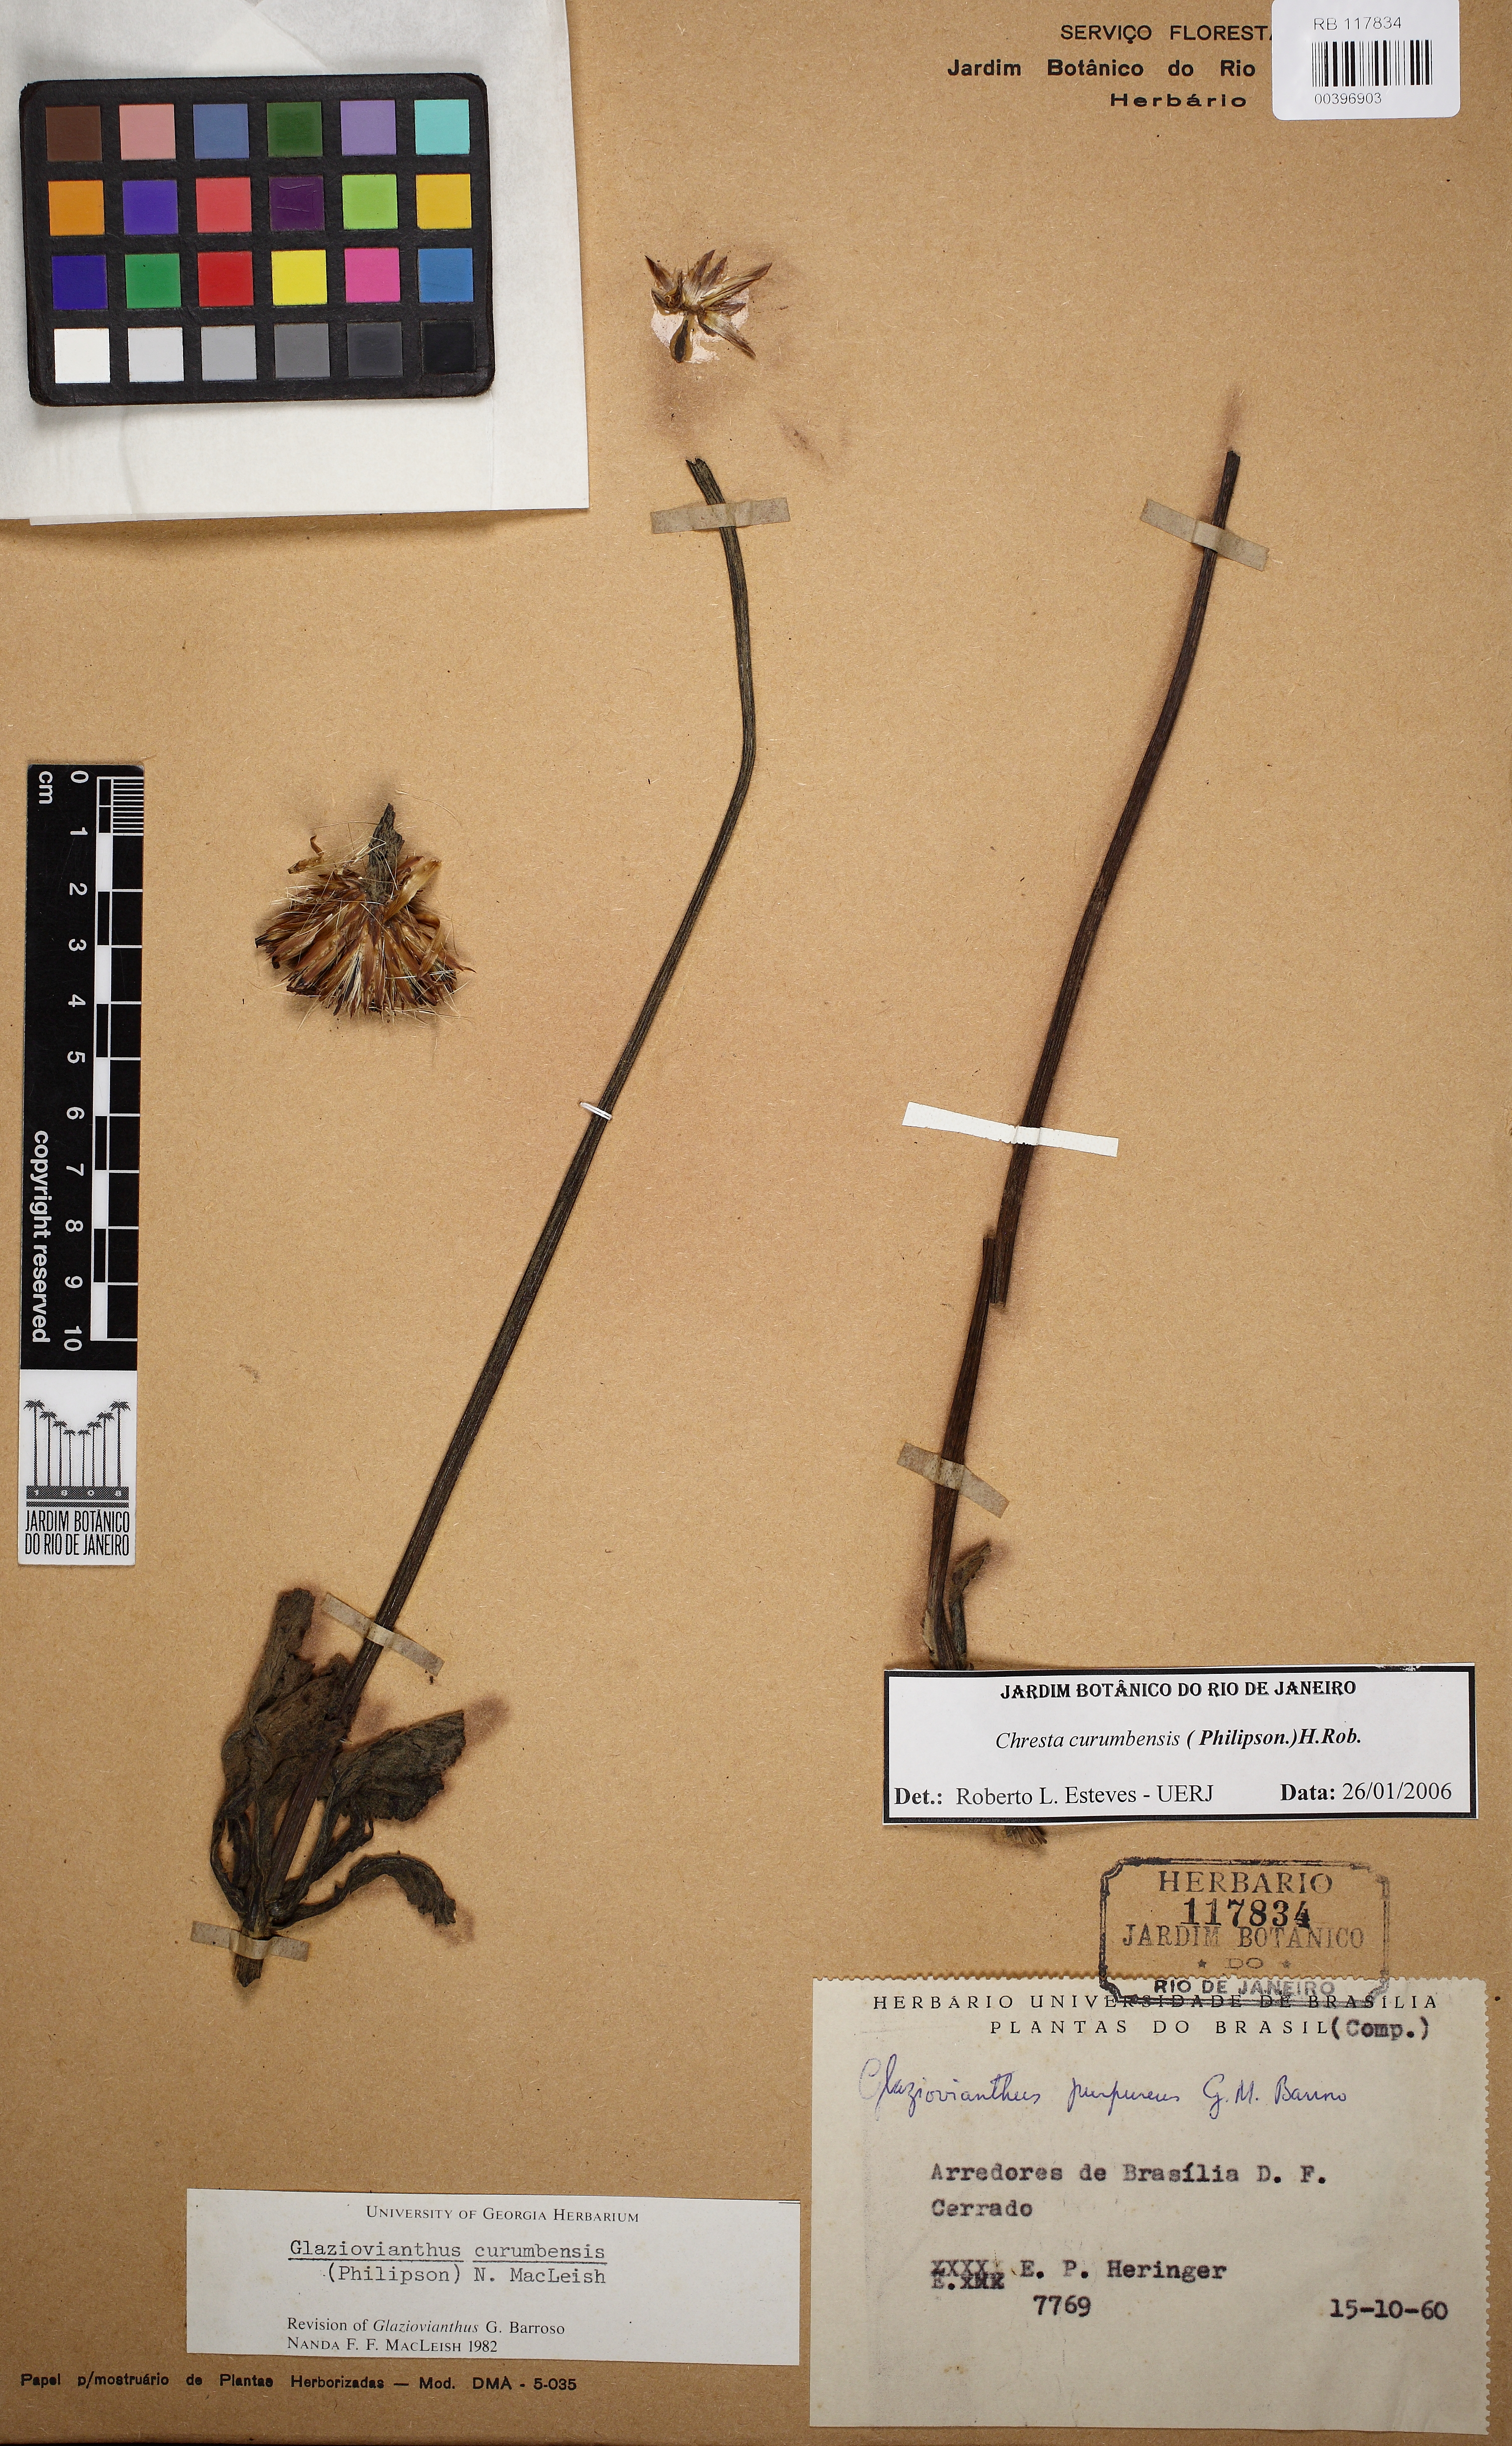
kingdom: Plantae
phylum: Tracheophyta
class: Magnoliopsida
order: Asterales
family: Asteraceae
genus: Chresta
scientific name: Chresta curumbensis
